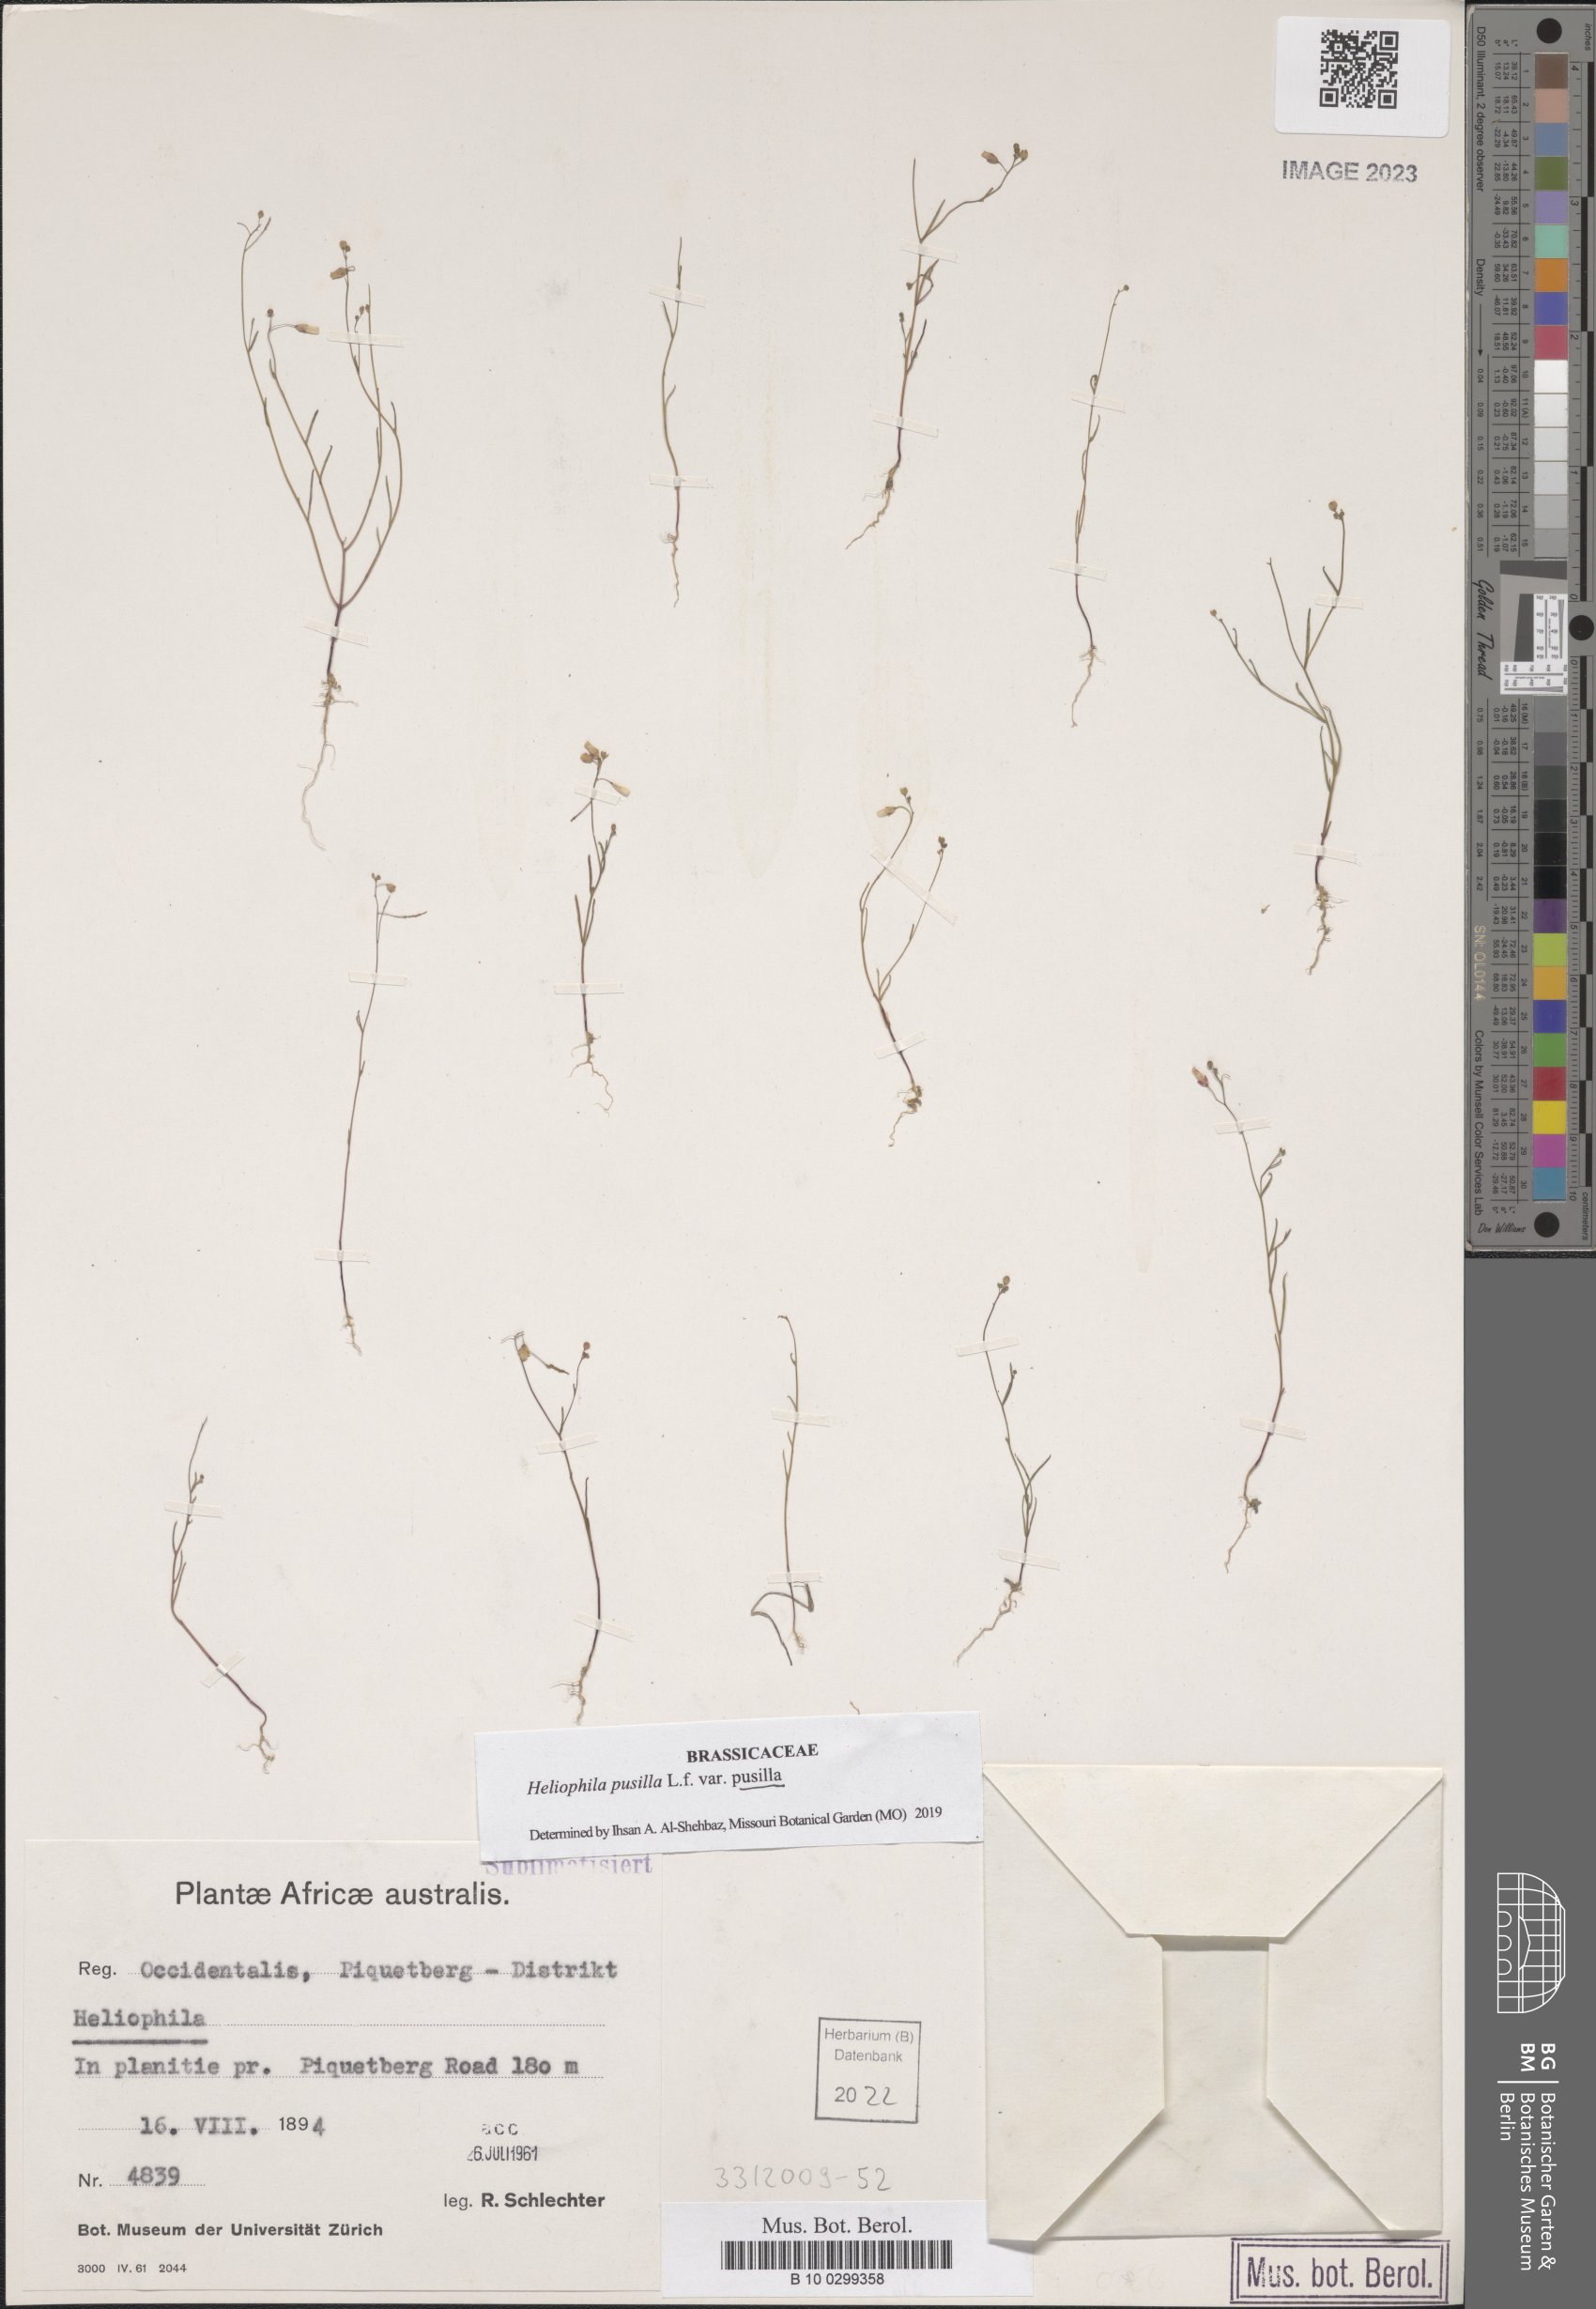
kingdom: Plantae
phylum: Tracheophyta
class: Magnoliopsida
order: Brassicales
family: Brassicaceae
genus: Heliophila
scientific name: Heliophila pusilla
